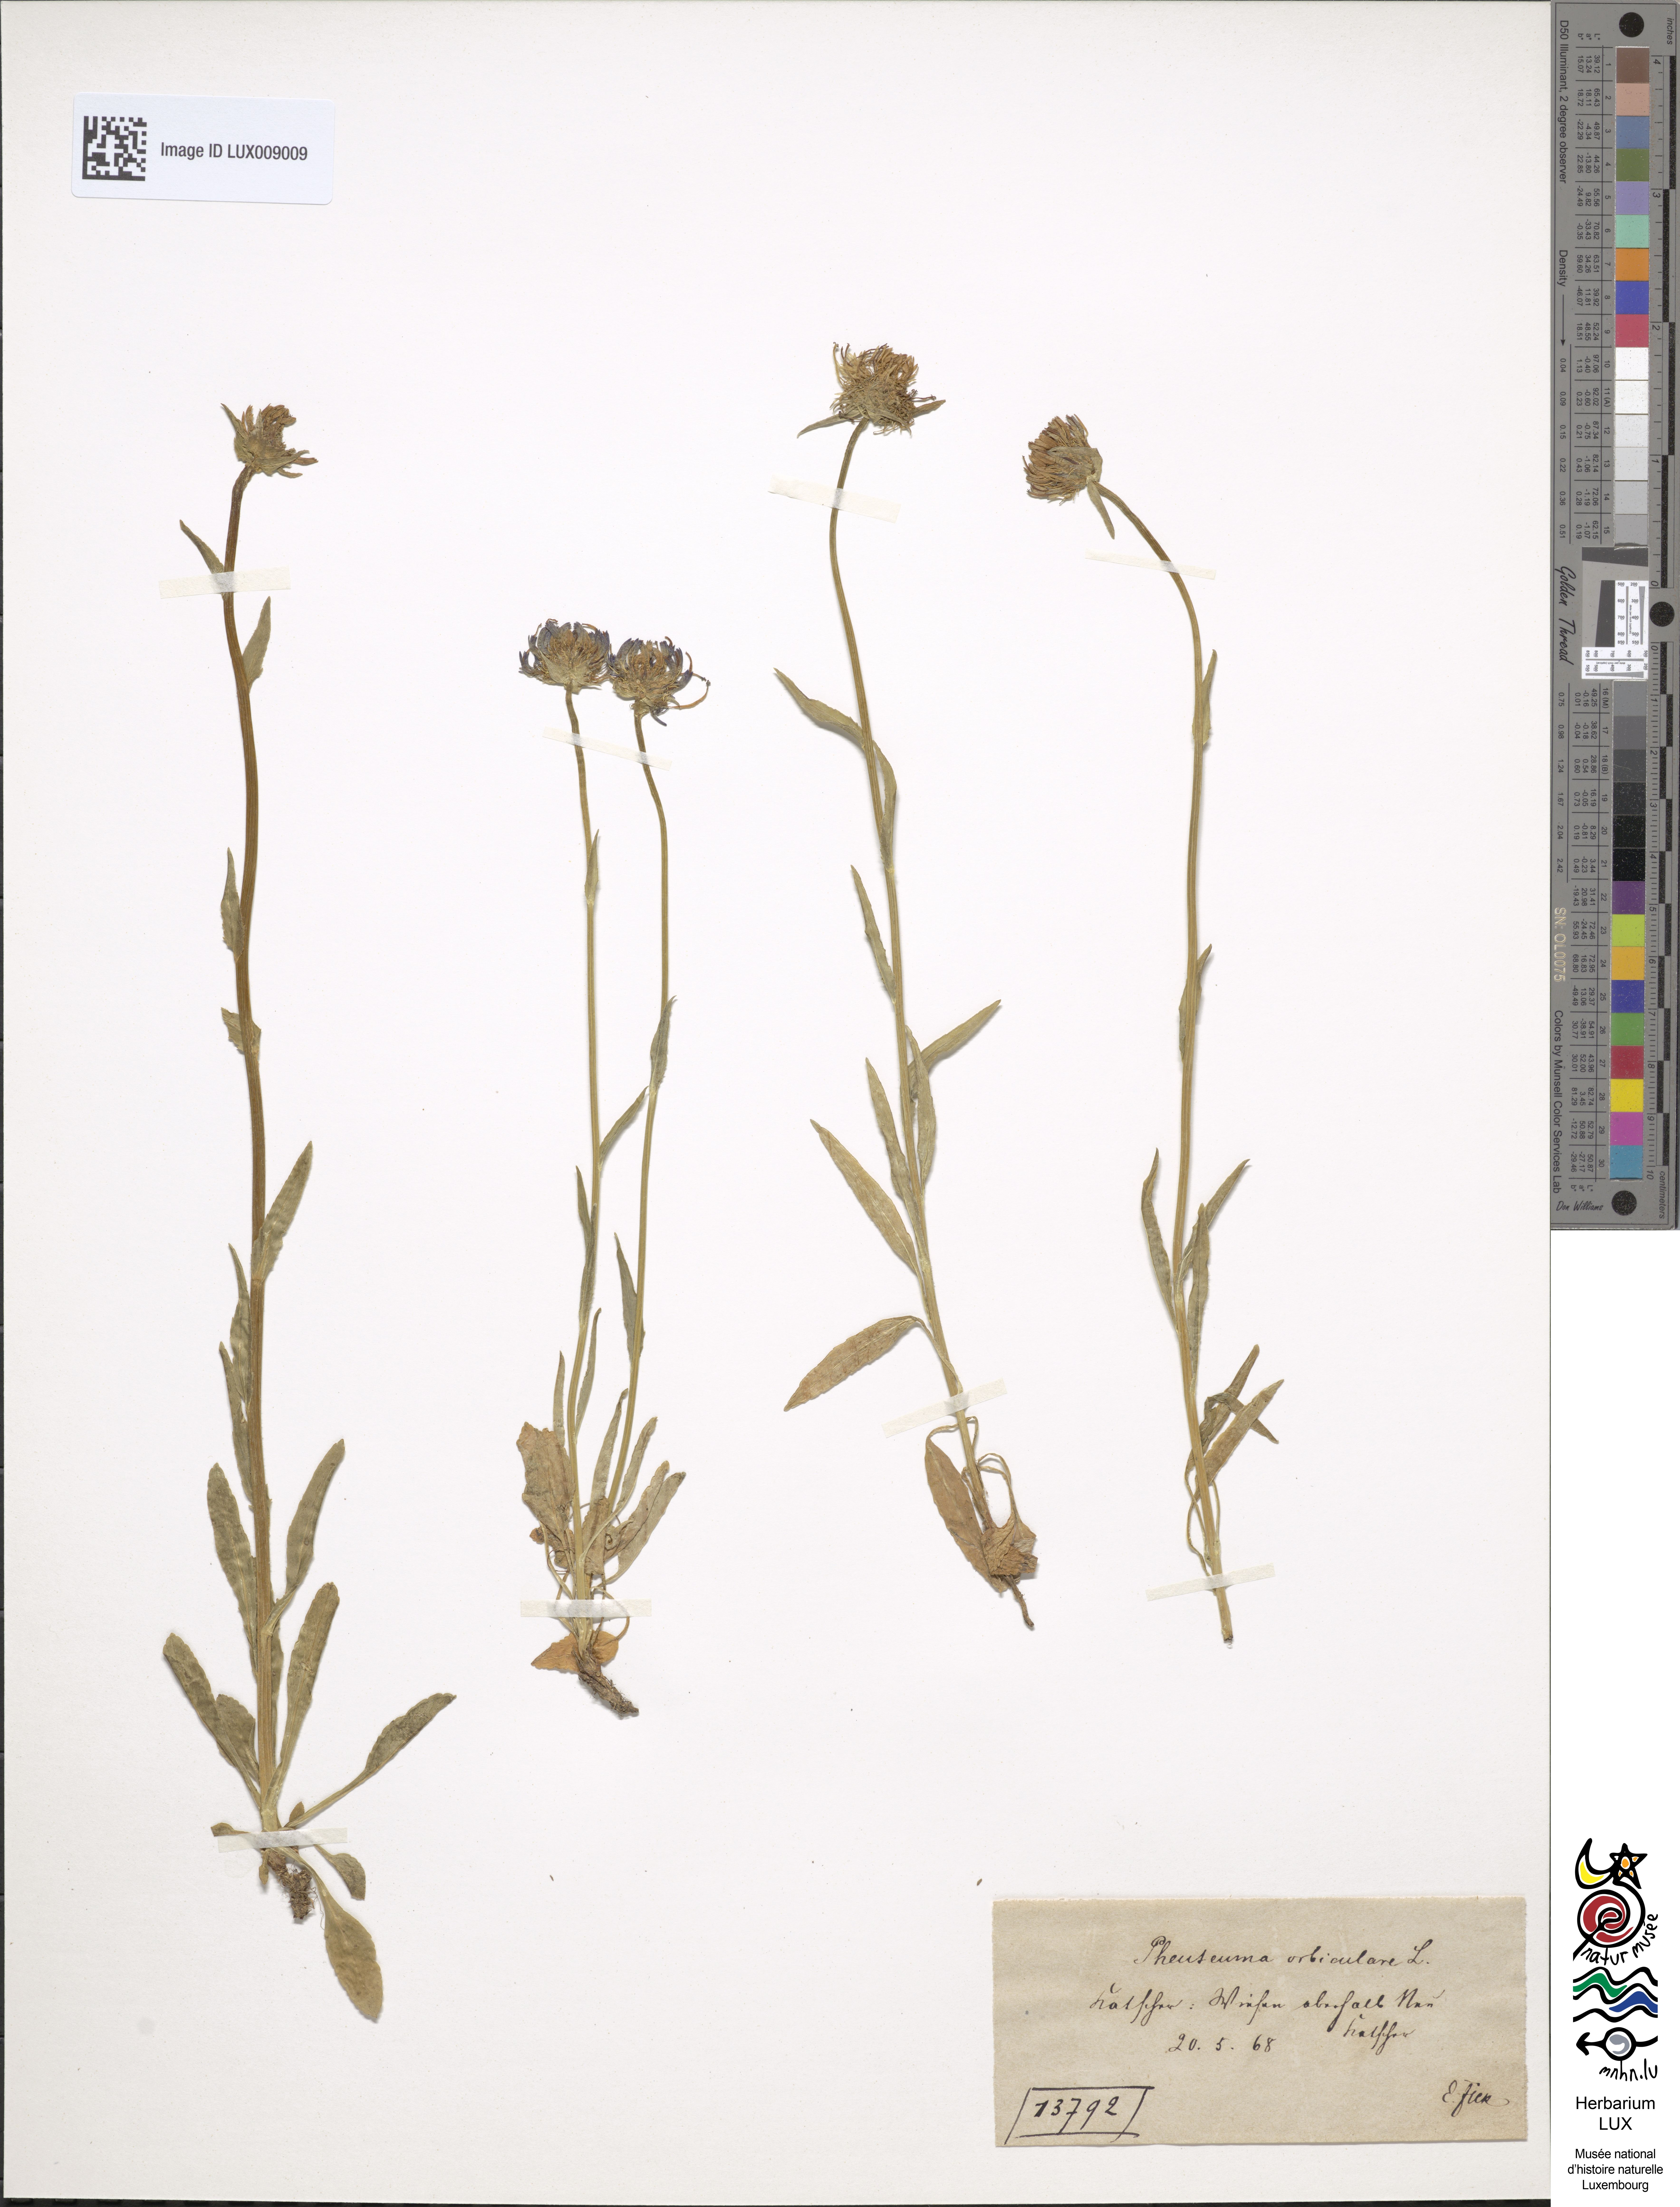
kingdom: Plantae
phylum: Tracheophyta
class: Magnoliopsida
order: Asterales
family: Campanulaceae
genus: Phyteuma
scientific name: Phyteuma orbiculare
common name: Round-headed rampion
